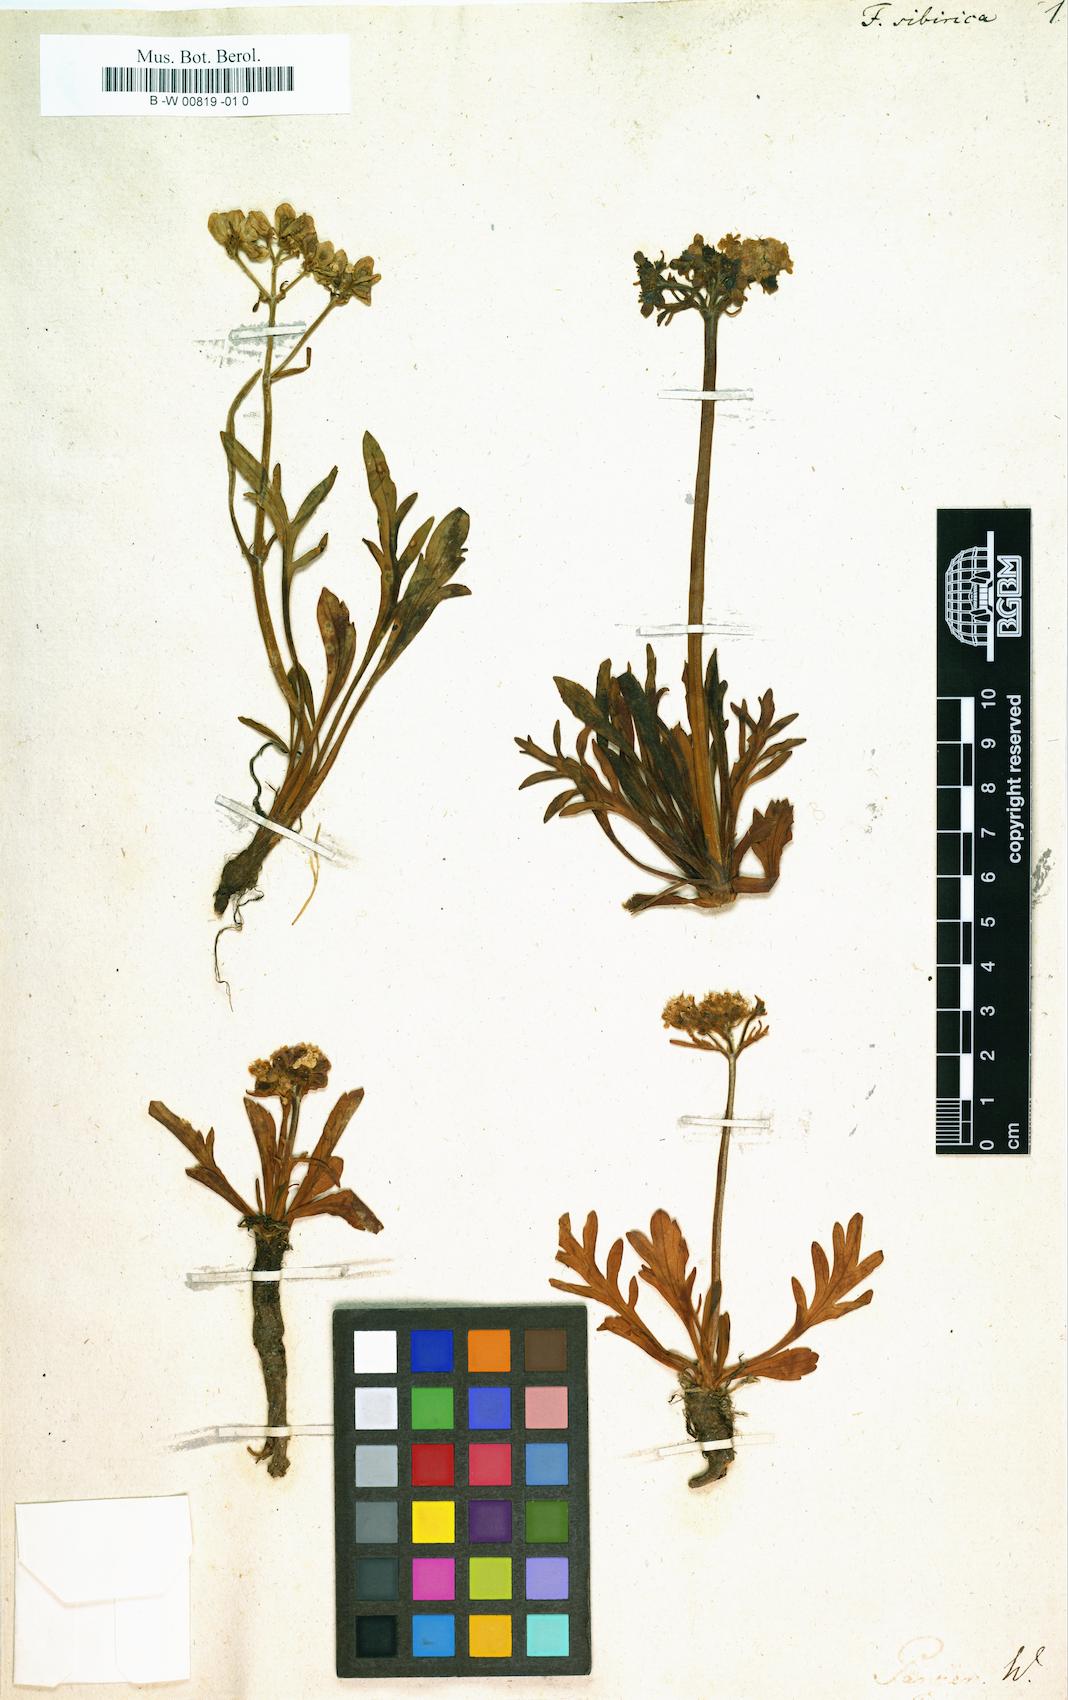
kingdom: Plantae
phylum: Tracheophyta
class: Magnoliopsida
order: Dipsacales
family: Caprifoliaceae
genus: Patrinia
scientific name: Patrinia sibirica
